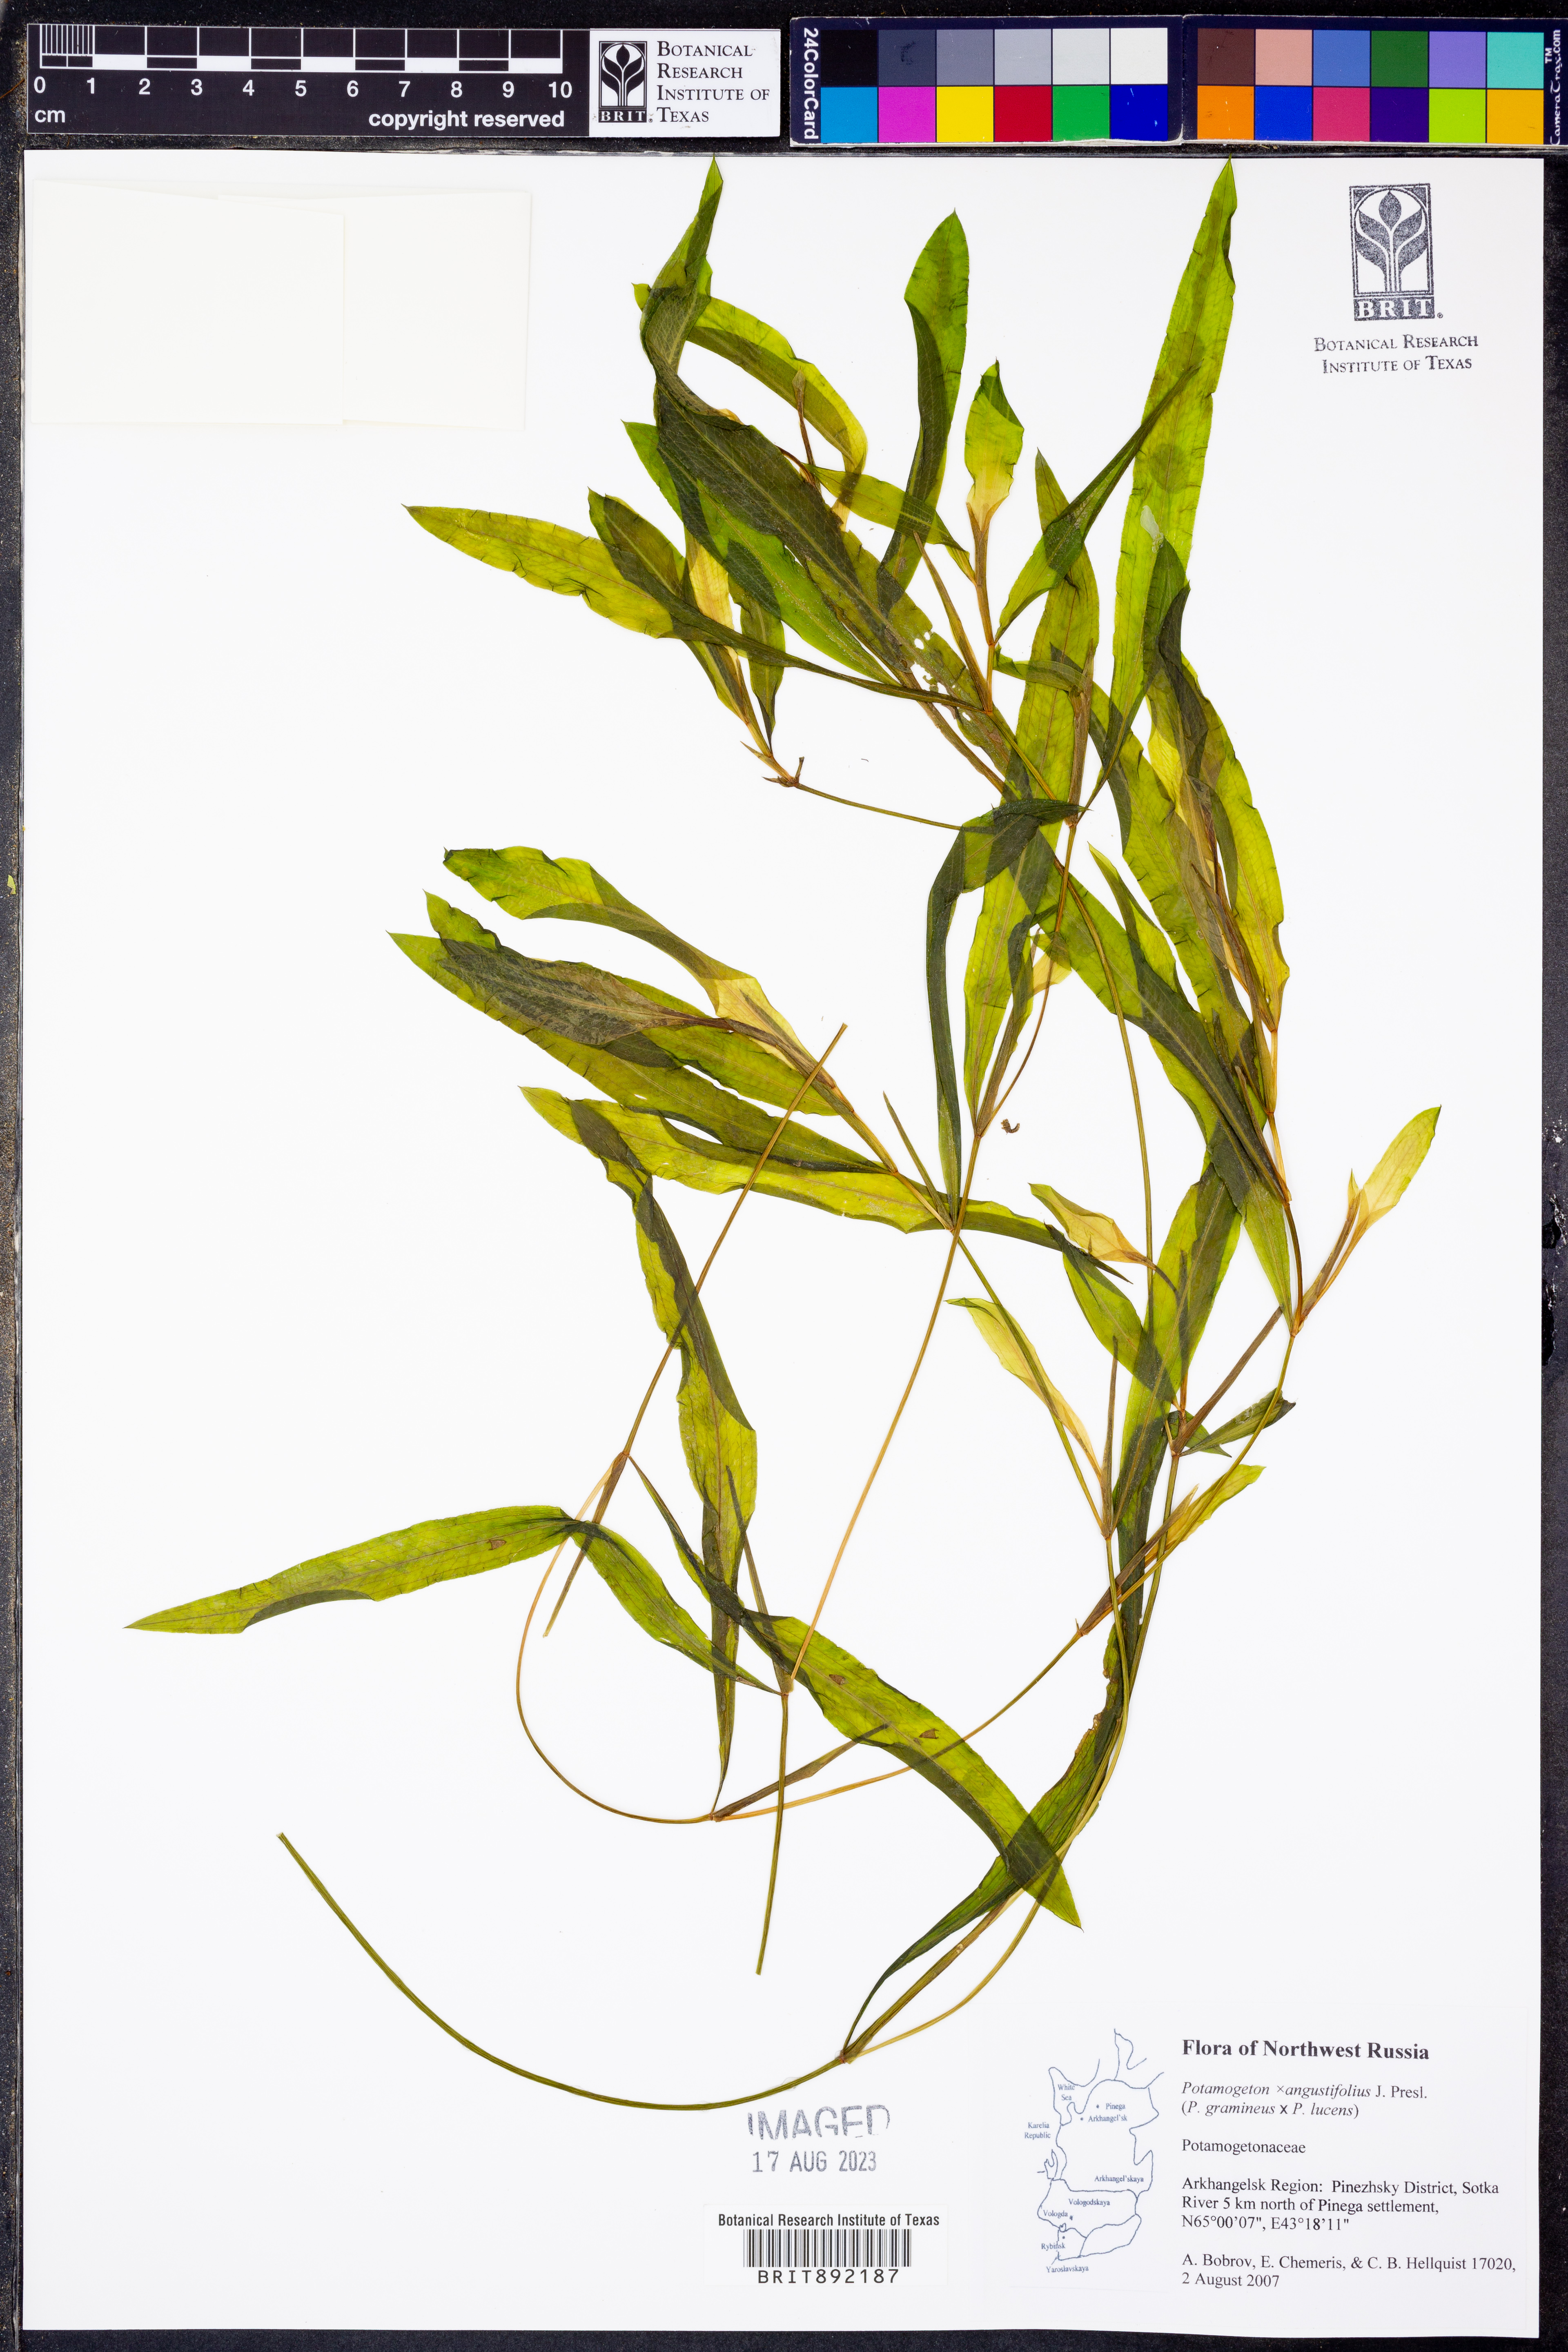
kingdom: Plantae
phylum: Tracheophyta
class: Liliopsida
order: Alismatales
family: Potamogetonaceae
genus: Potamogeton
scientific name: Potamogeton angustifolius
